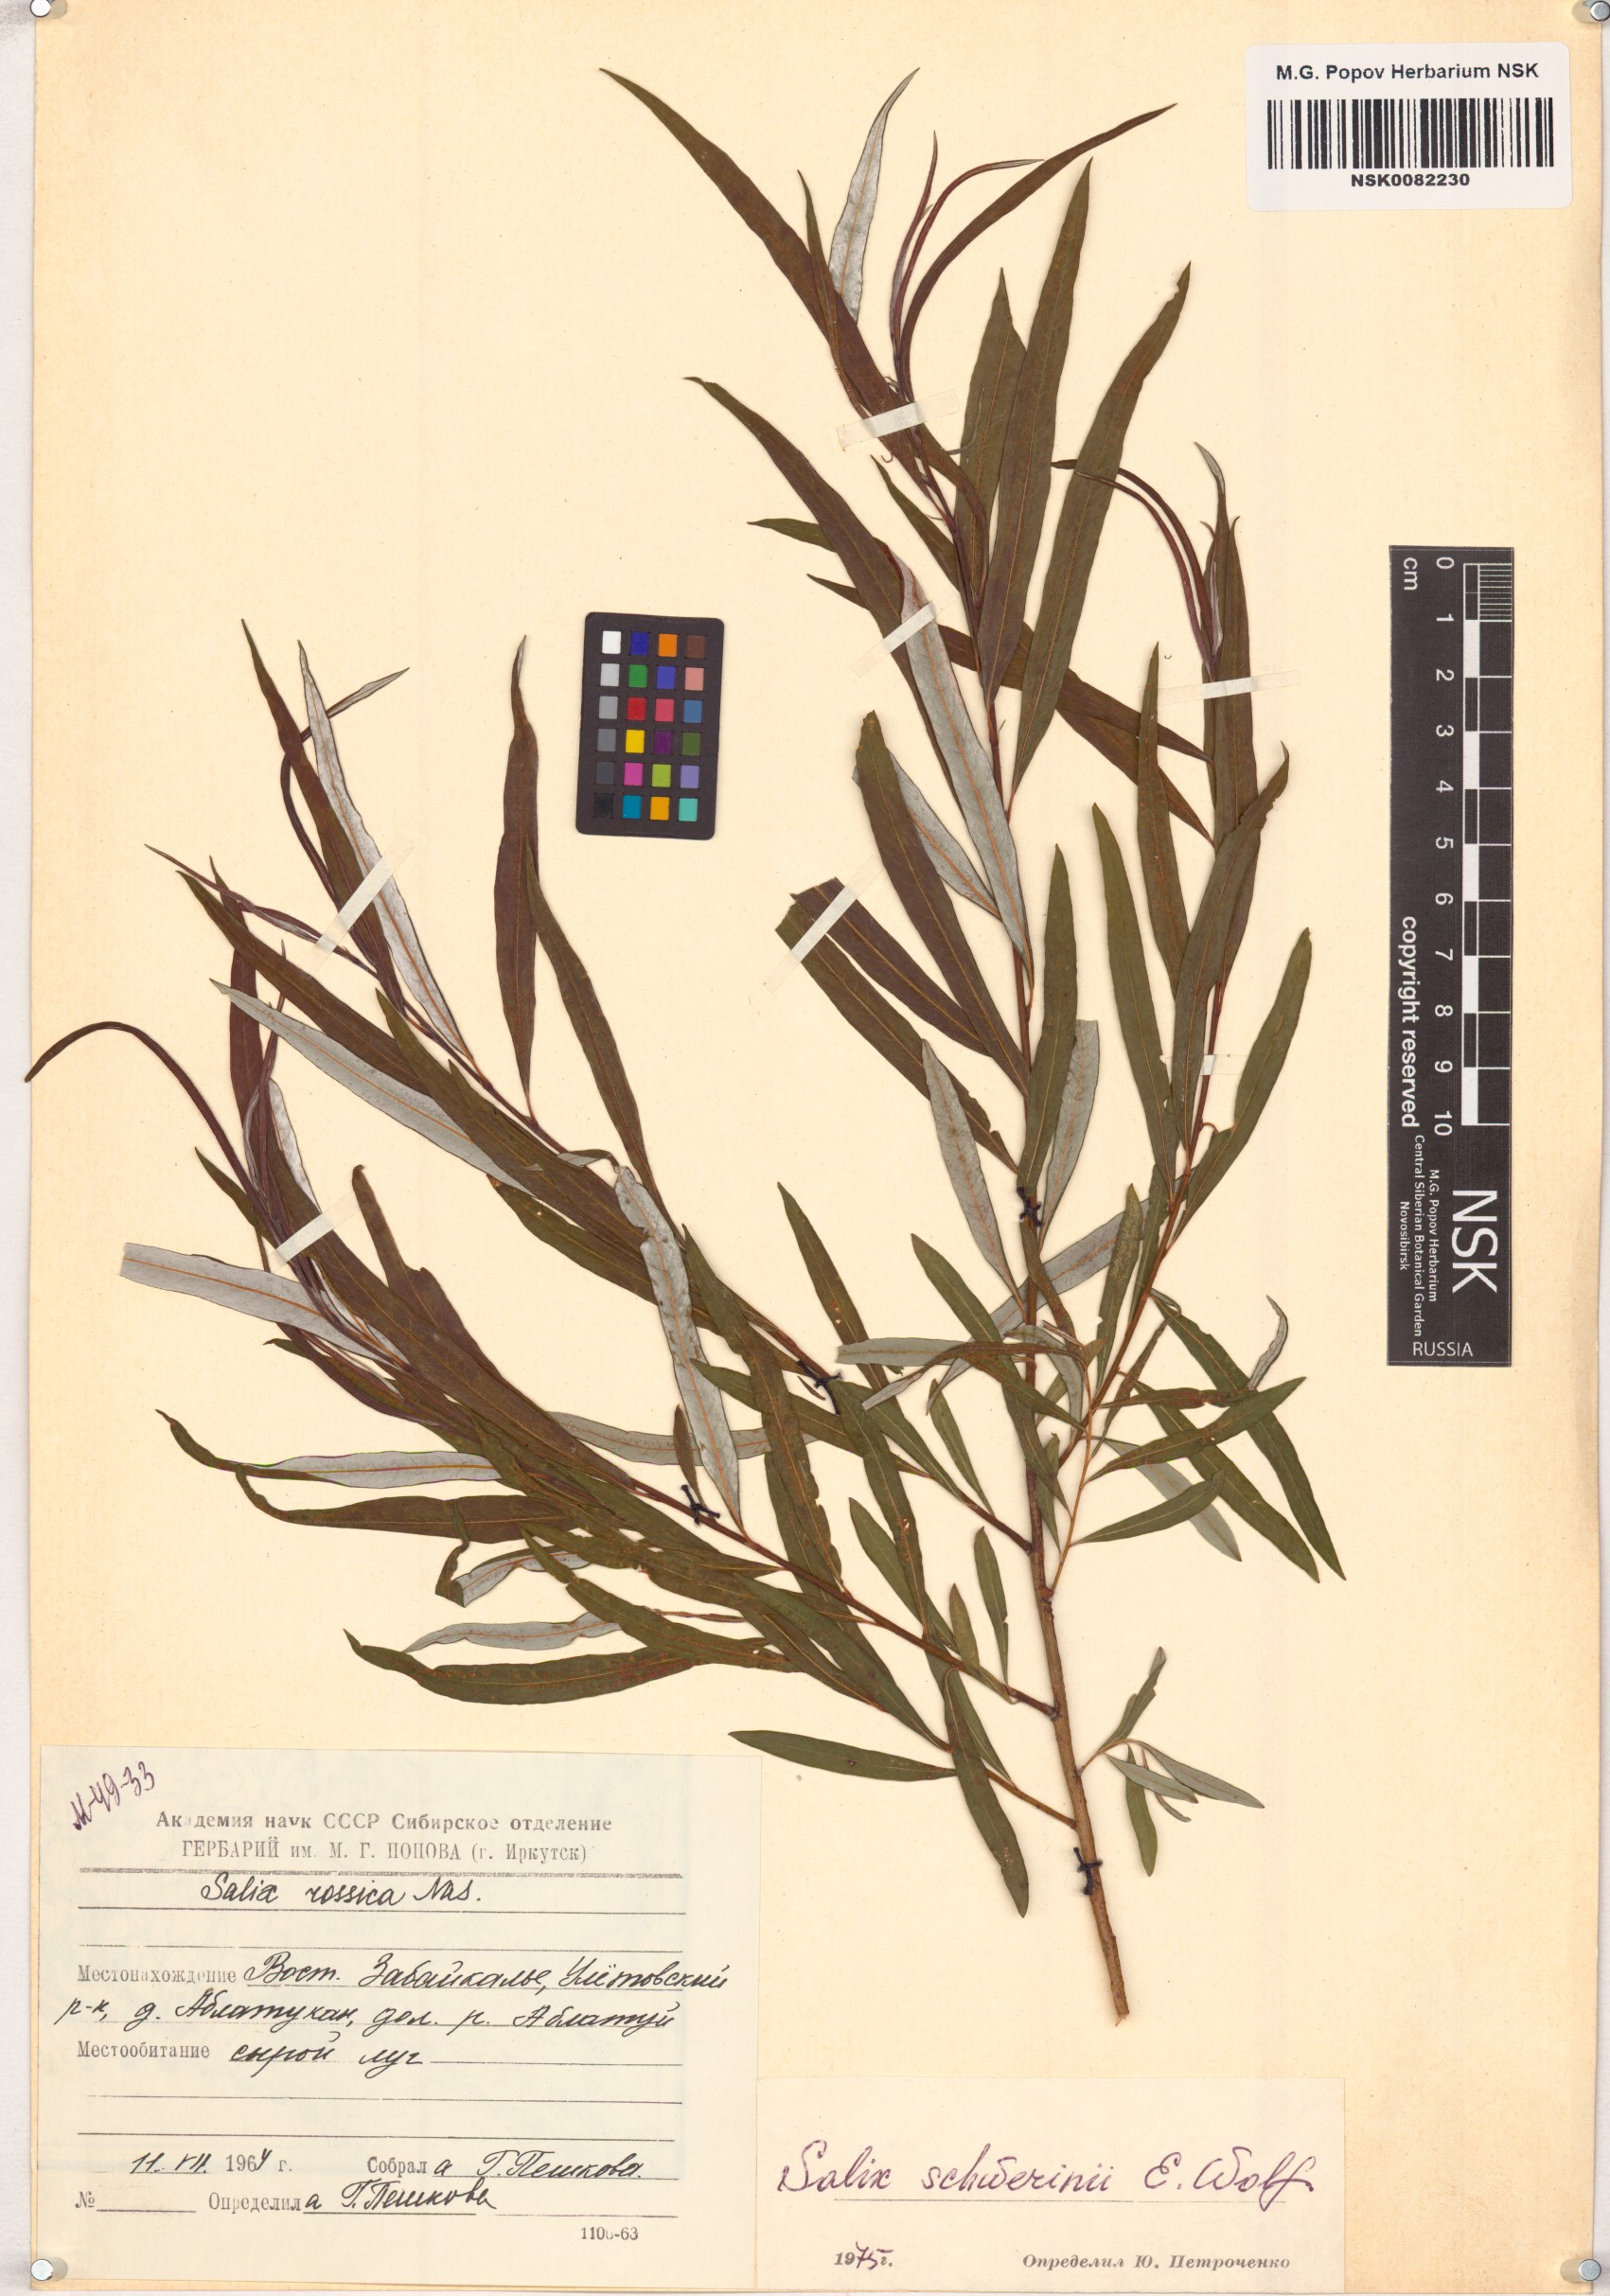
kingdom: Plantae
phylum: Tracheophyta
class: Magnoliopsida
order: Malpighiales
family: Salicaceae
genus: Salix
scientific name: Salix schwerinii
